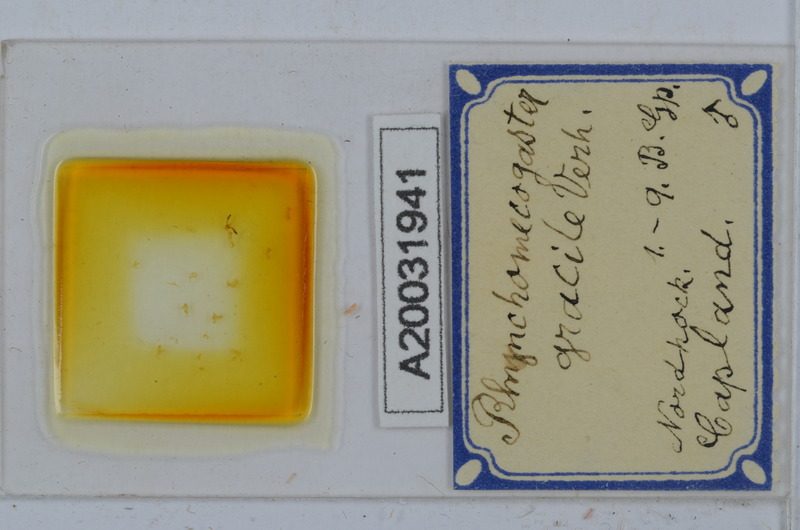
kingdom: Animalia
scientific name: Animalia
